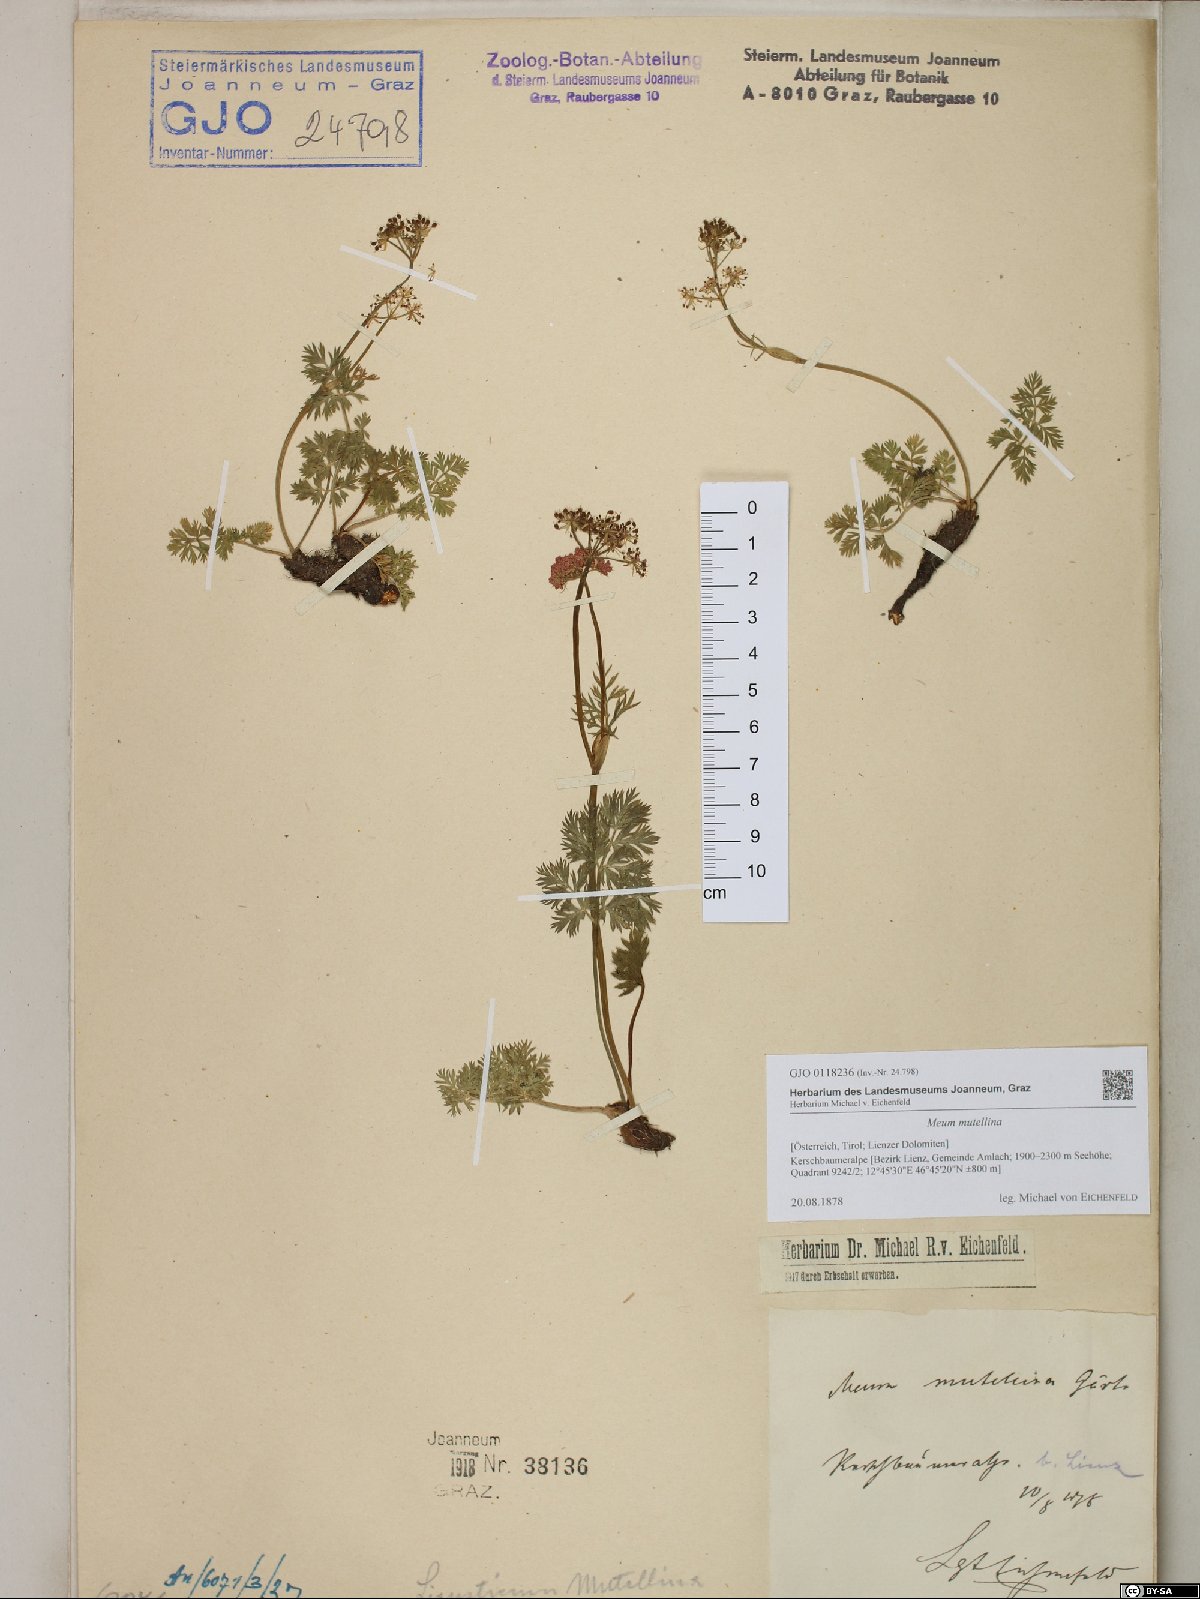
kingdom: Plantae
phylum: Tracheophyta
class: Magnoliopsida
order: Apiales
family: Apiaceae
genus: Mutellina
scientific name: Mutellina adonidifolia
